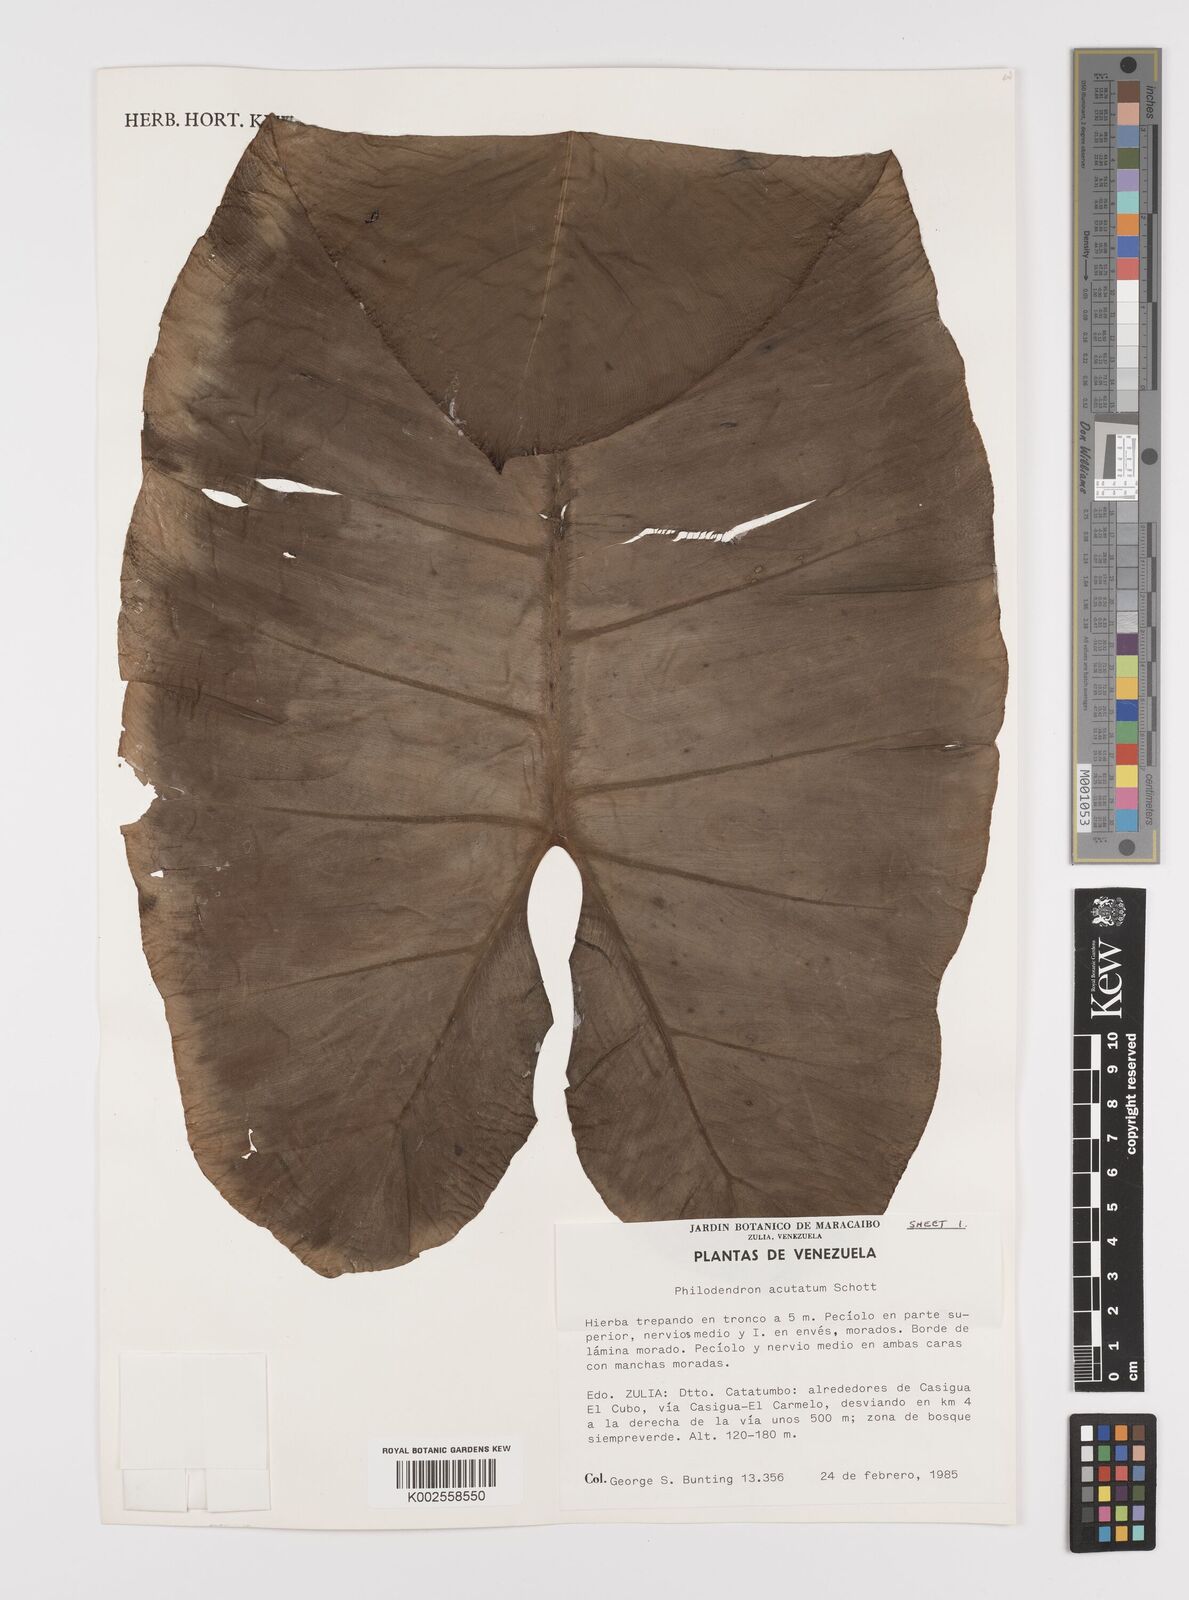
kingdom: Plantae
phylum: Tracheophyta
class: Liliopsida
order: Alismatales
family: Araceae
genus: Philodendron
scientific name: Philodendron quinquenervium
